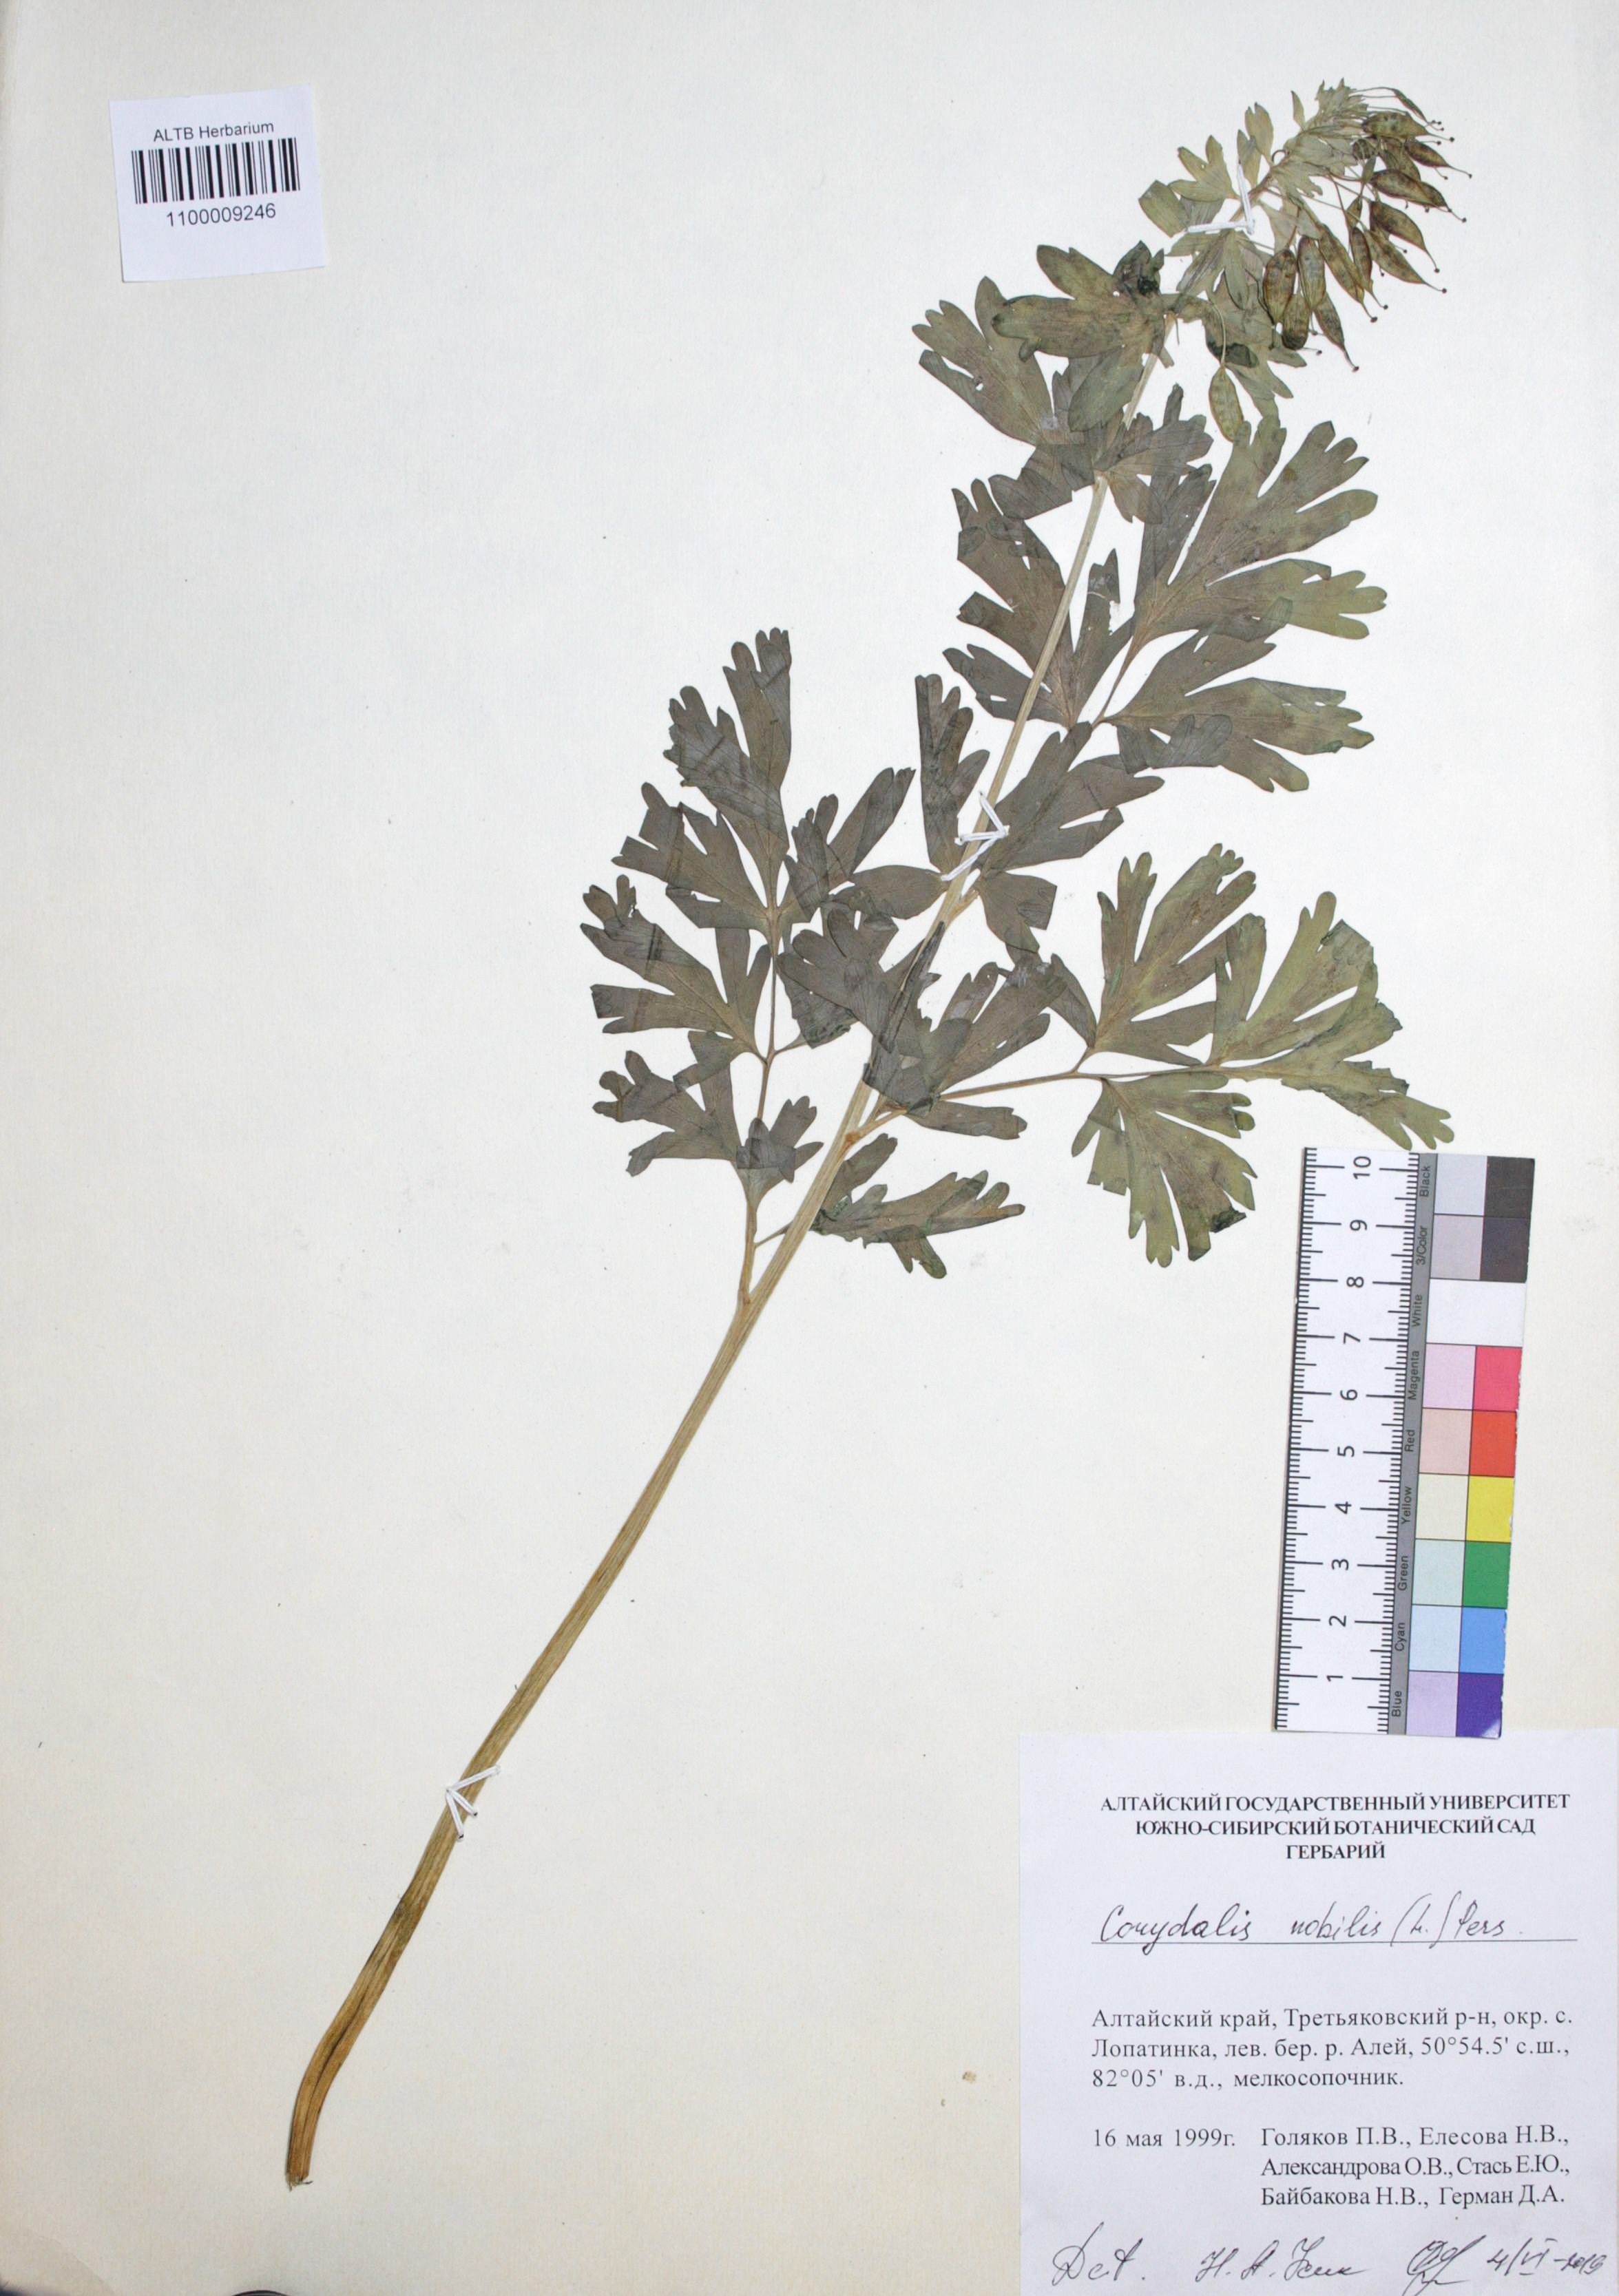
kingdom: Plantae
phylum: Tracheophyta
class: Magnoliopsida
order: Ranunculales
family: Papaveraceae
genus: Corydalis
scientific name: Corydalis nobilis
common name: Siberian corydalis
